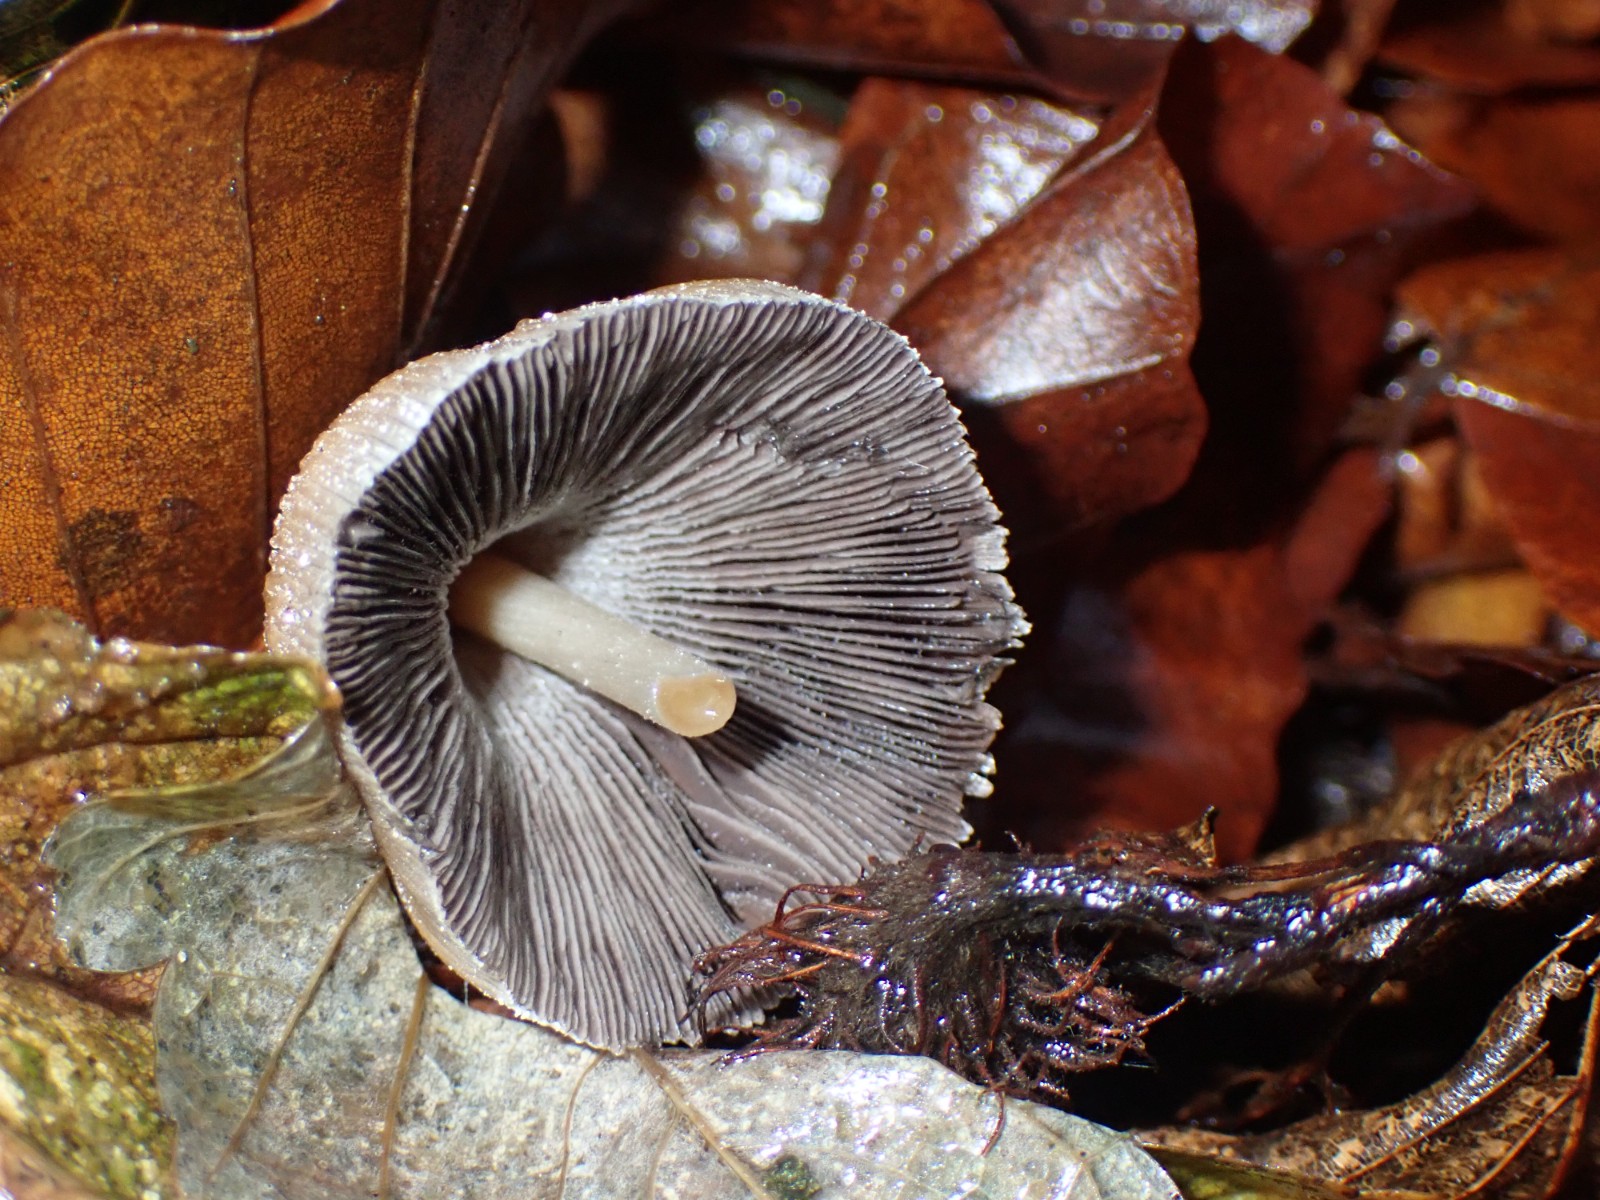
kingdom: Fungi
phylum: Basidiomycota
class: Agaricomycetes
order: Agaricales
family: Psathyrellaceae
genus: Coprinellus
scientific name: Coprinellus
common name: blækhat
